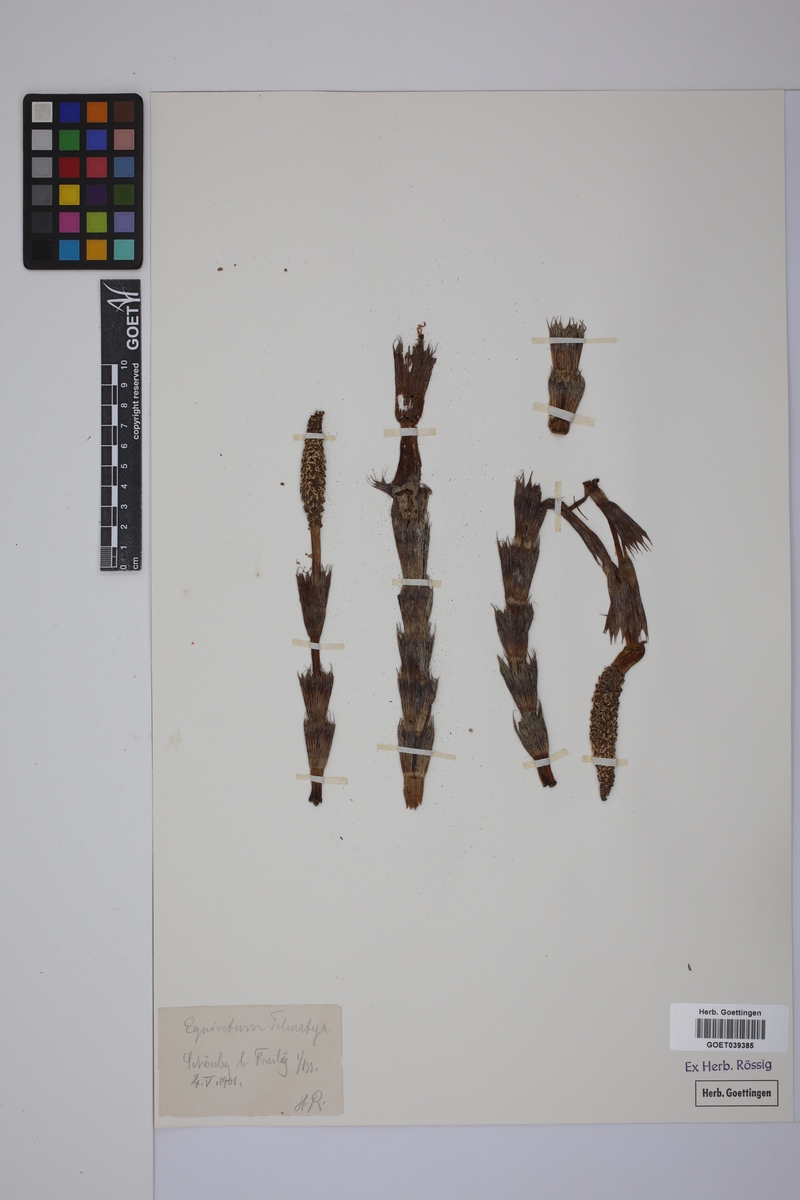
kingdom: Plantae
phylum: Tracheophyta
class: Polypodiopsida
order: Equisetales
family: Equisetaceae
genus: Equisetum
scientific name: Equisetum telmateia
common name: Great horsetail
